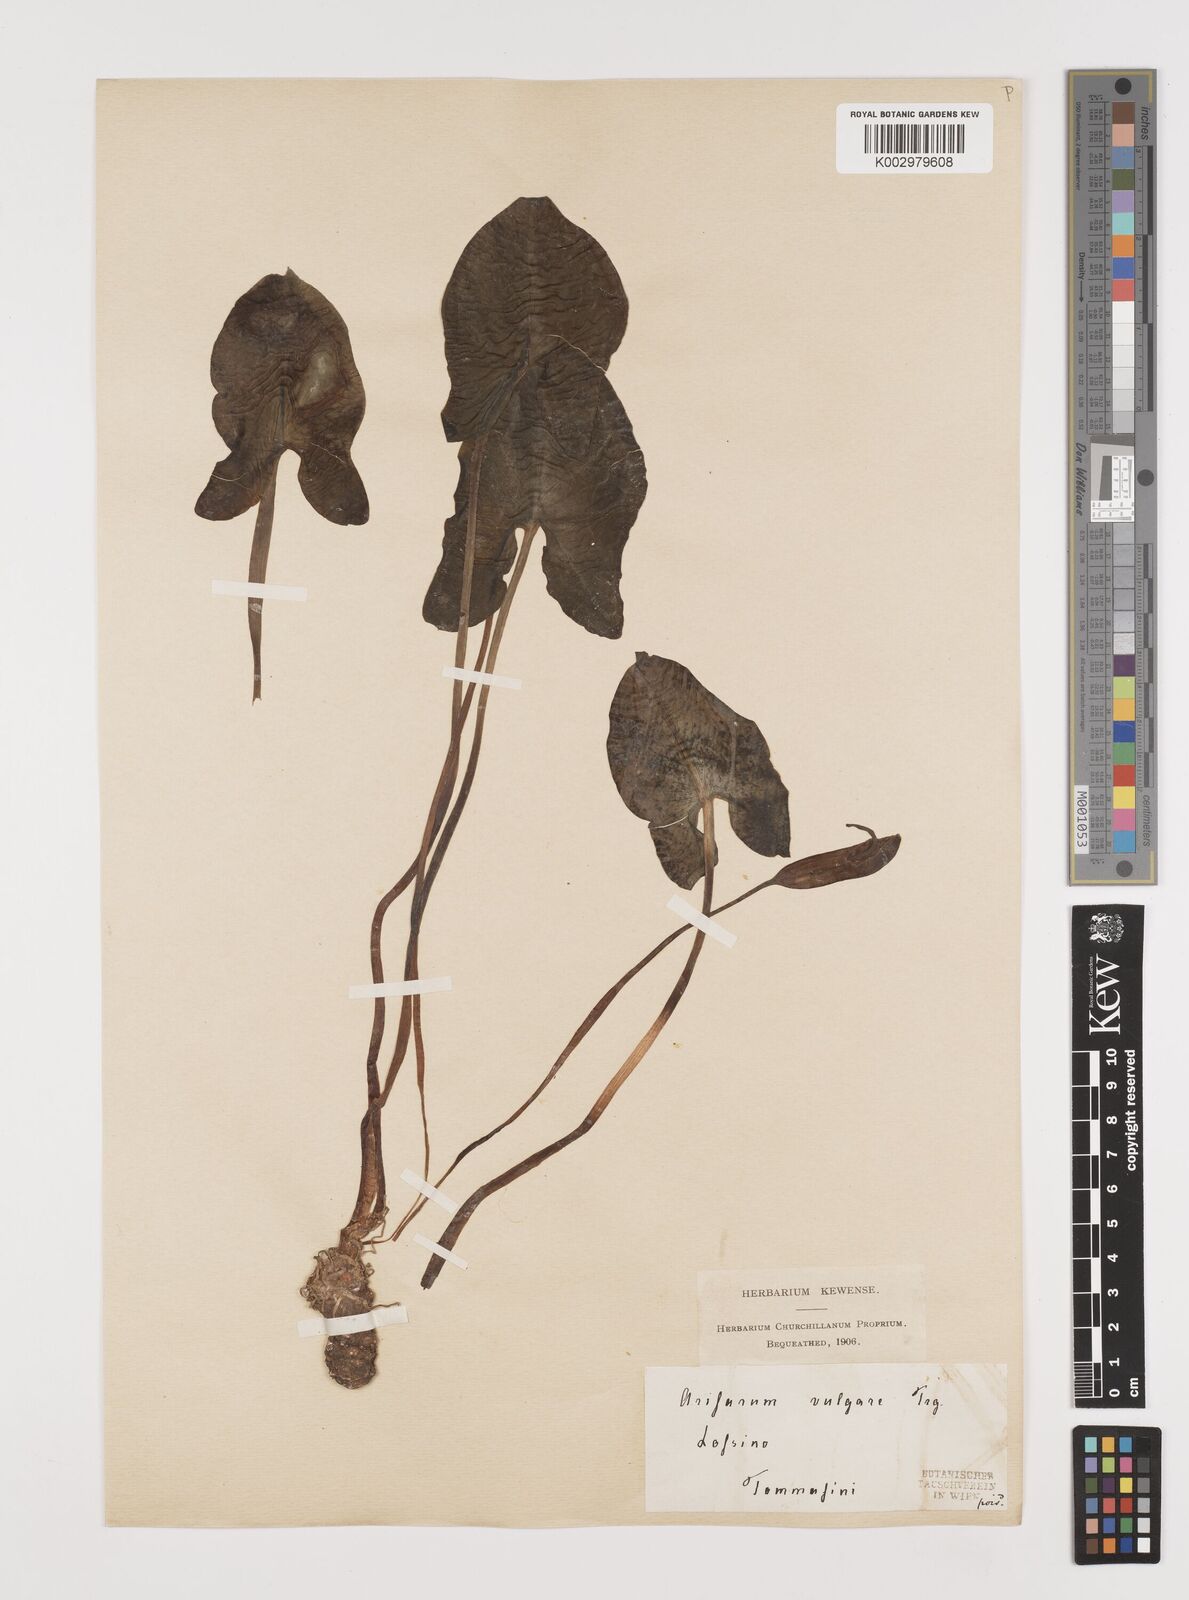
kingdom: Plantae
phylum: Tracheophyta
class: Liliopsida
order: Alismatales
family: Araceae
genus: Arisarum
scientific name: Arisarum vulgare
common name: Common arisarum
